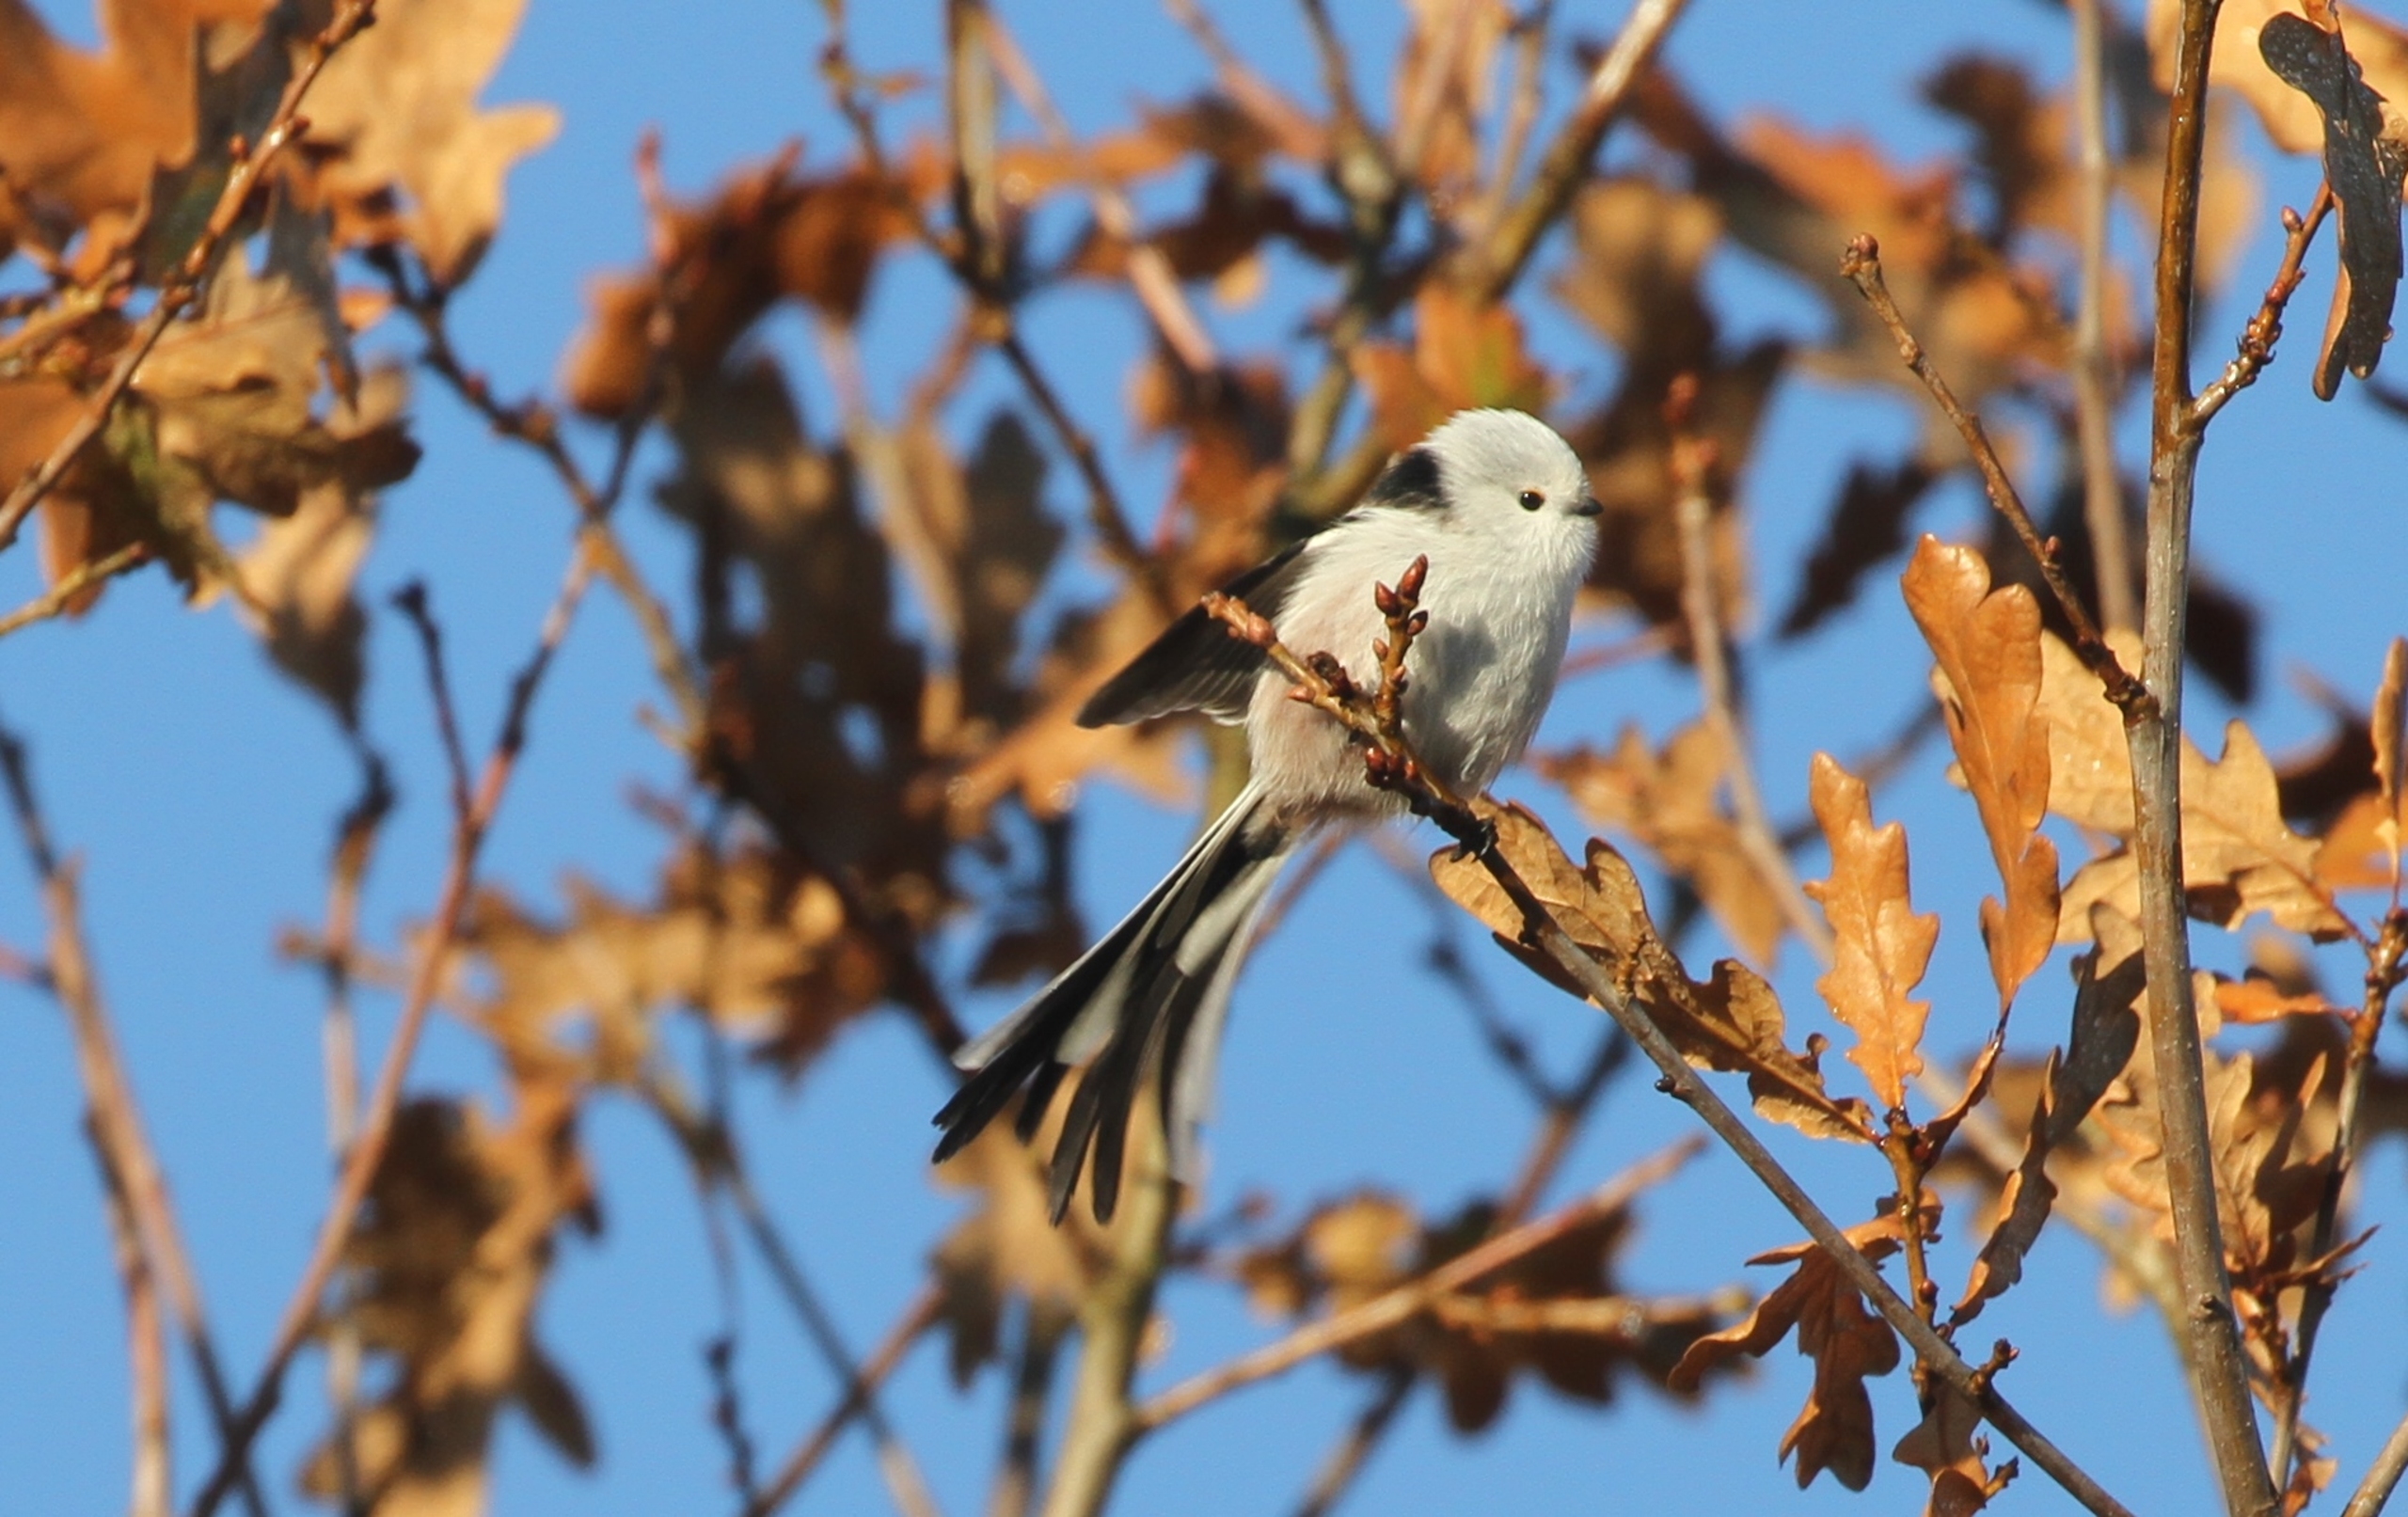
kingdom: Animalia
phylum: Chordata
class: Aves
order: Passeriformes
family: Aegithalidae
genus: Aegithalos
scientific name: Aegithalos caudatus
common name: Halemejse
